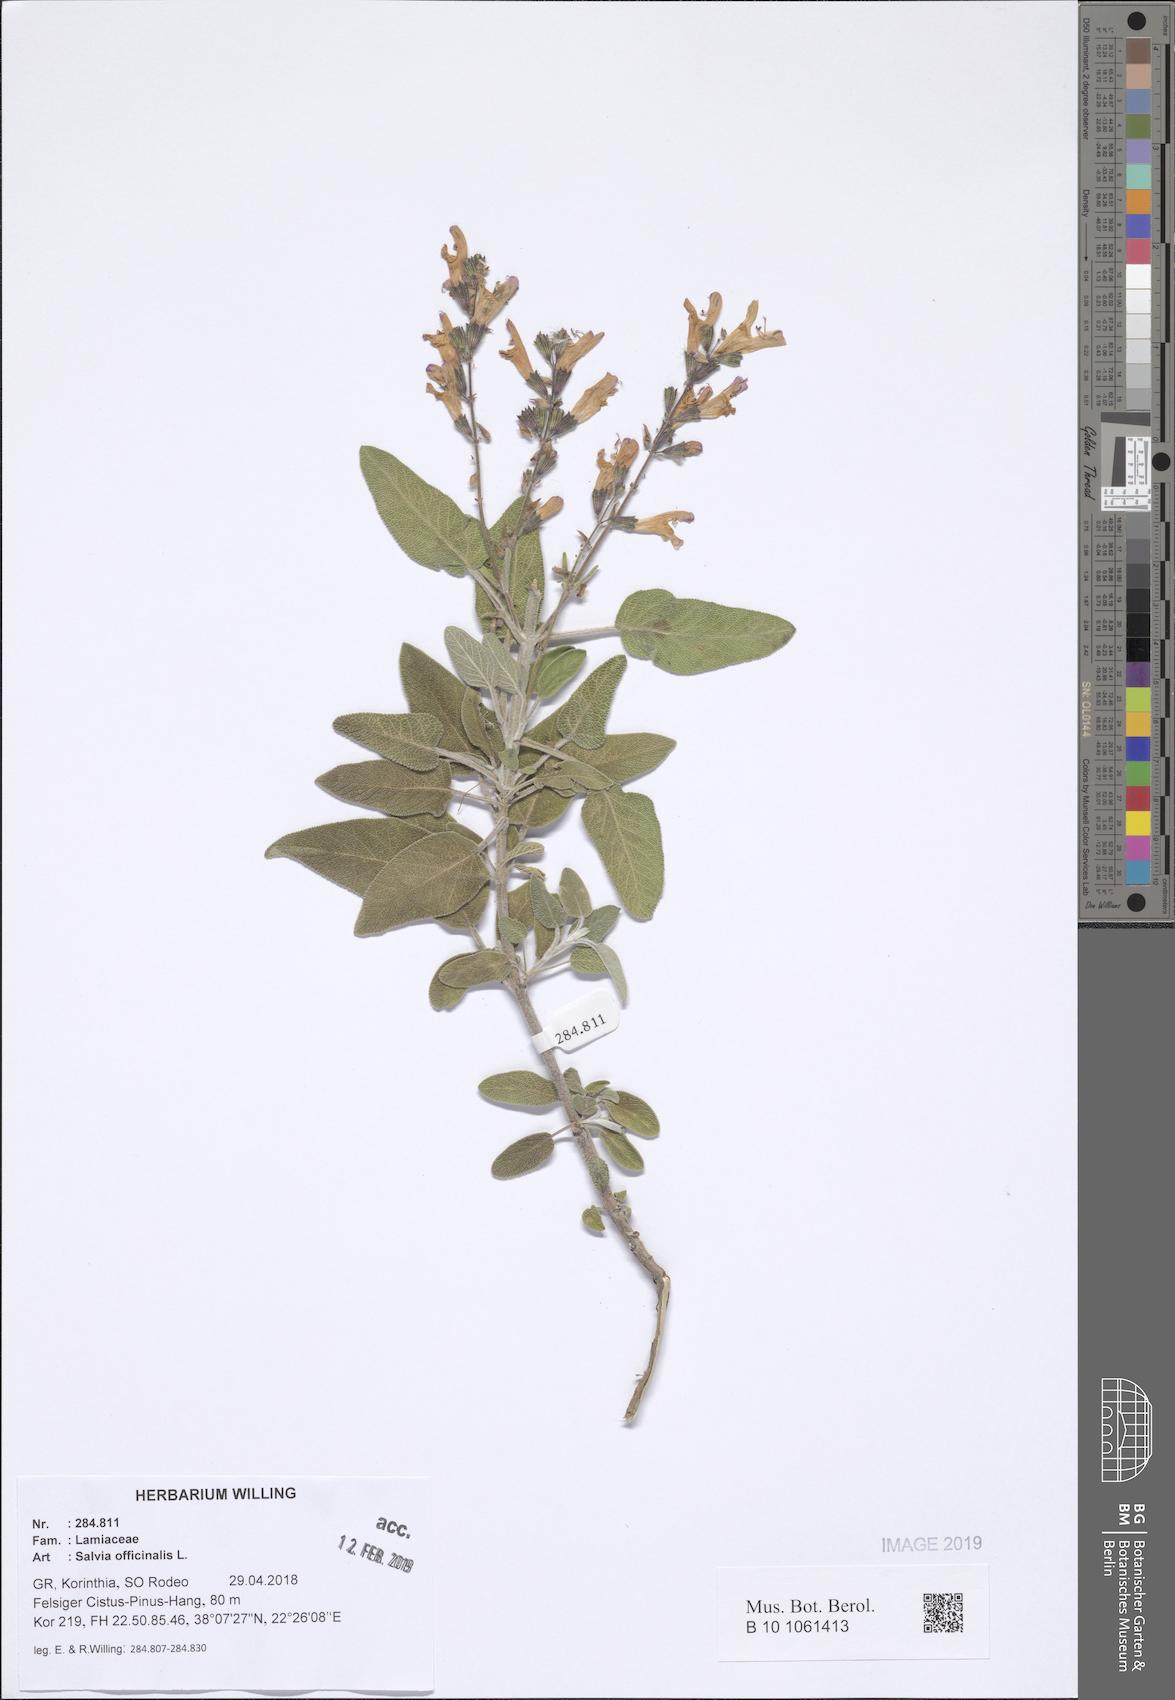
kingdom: Plantae
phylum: Tracheophyta
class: Magnoliopsida
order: Lamiales
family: Lamiaceae
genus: Salvia
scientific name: Salvia fruticosa
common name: Greek sage
